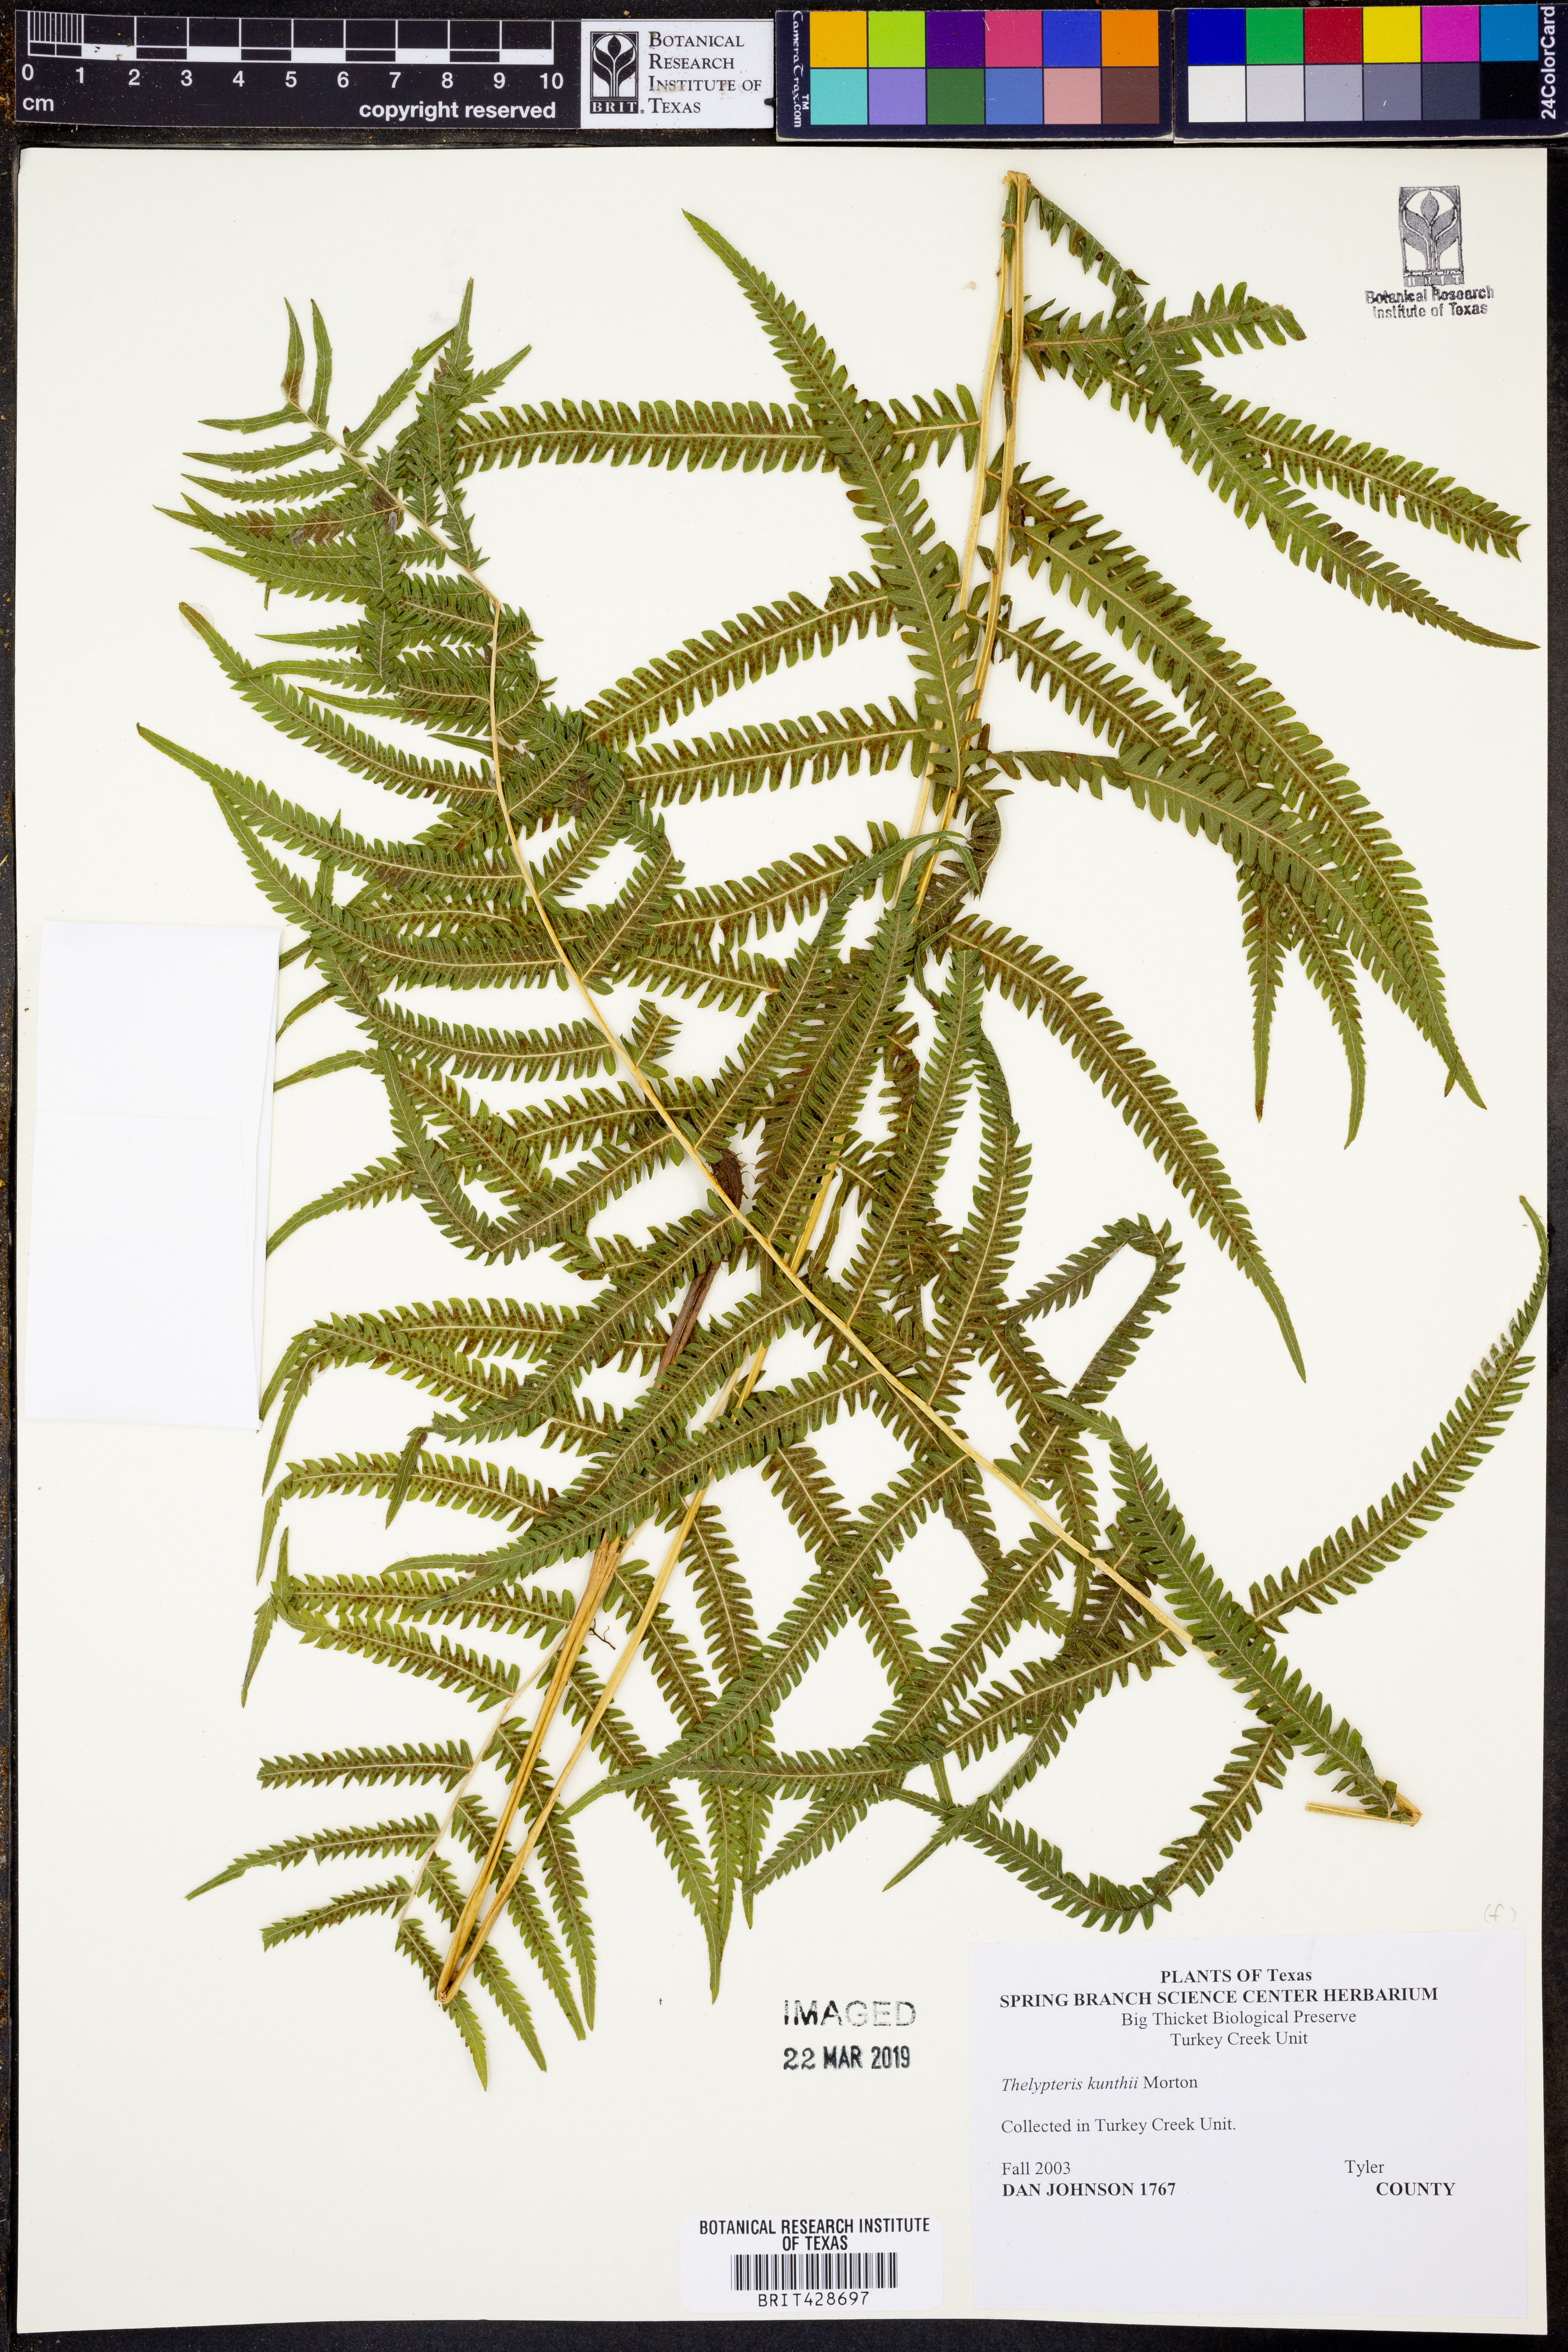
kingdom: Plantae
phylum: Tracheophyta
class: Polypodiopsida
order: Polypodiales
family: Thelypteridaceae
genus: Pelazoneuron
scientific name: Pelazoneuron kunthii
